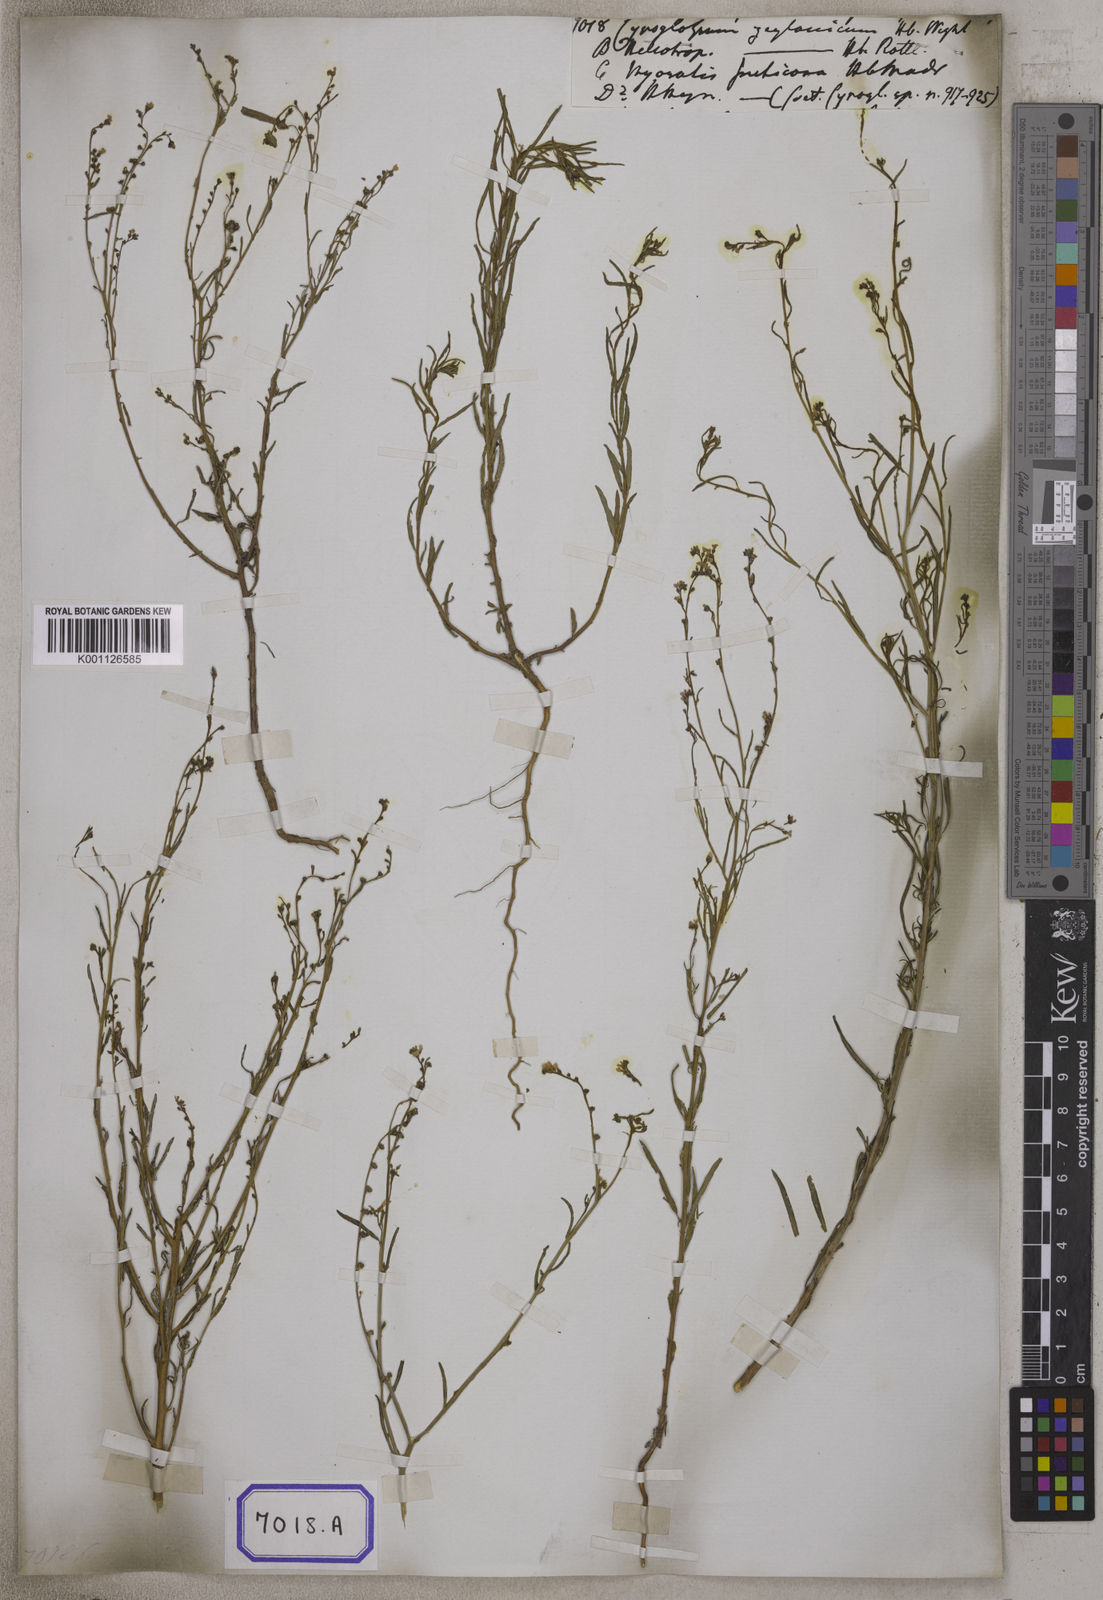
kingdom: Plantae
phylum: Tracheophyta
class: Magnoliopsida
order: Boraginales
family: Boraginaceae
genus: Cynoglossum
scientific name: Cynoglossum
